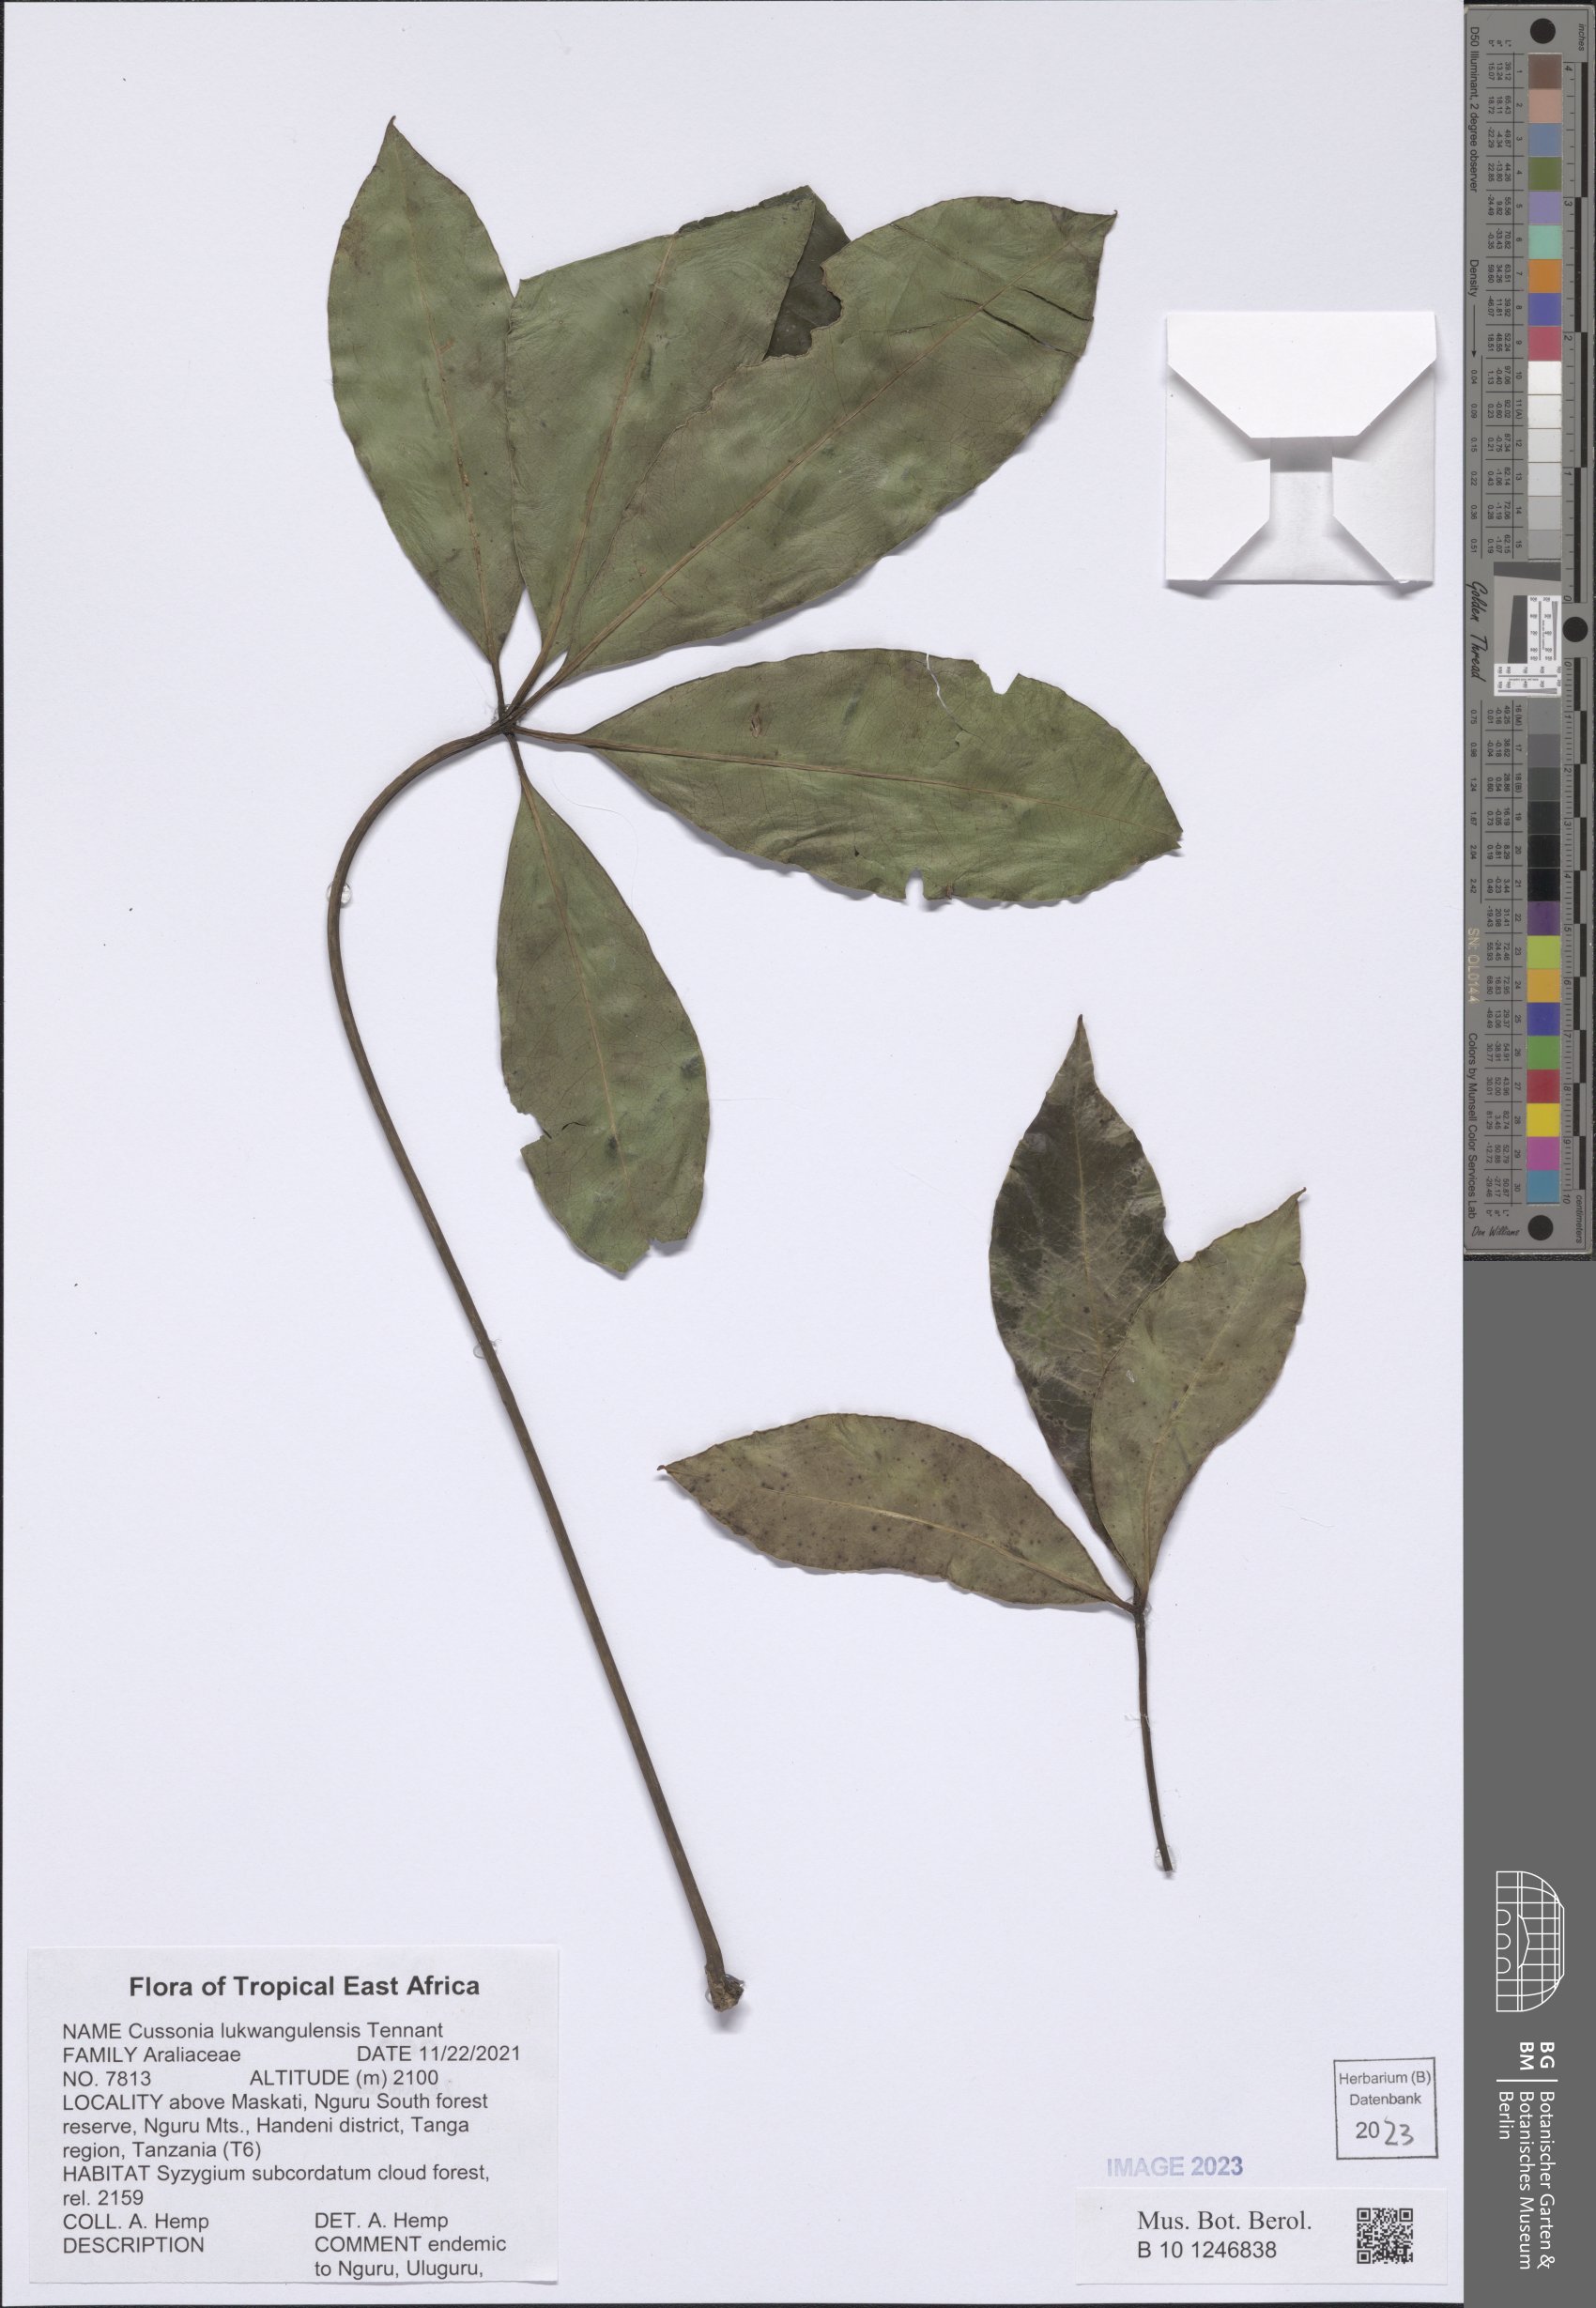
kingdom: Plantae
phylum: Tracheophyta
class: Magnoliopsida
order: Apiales
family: Araliaceae
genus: Neocussonia
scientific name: Neocussonia lukwangulensis
